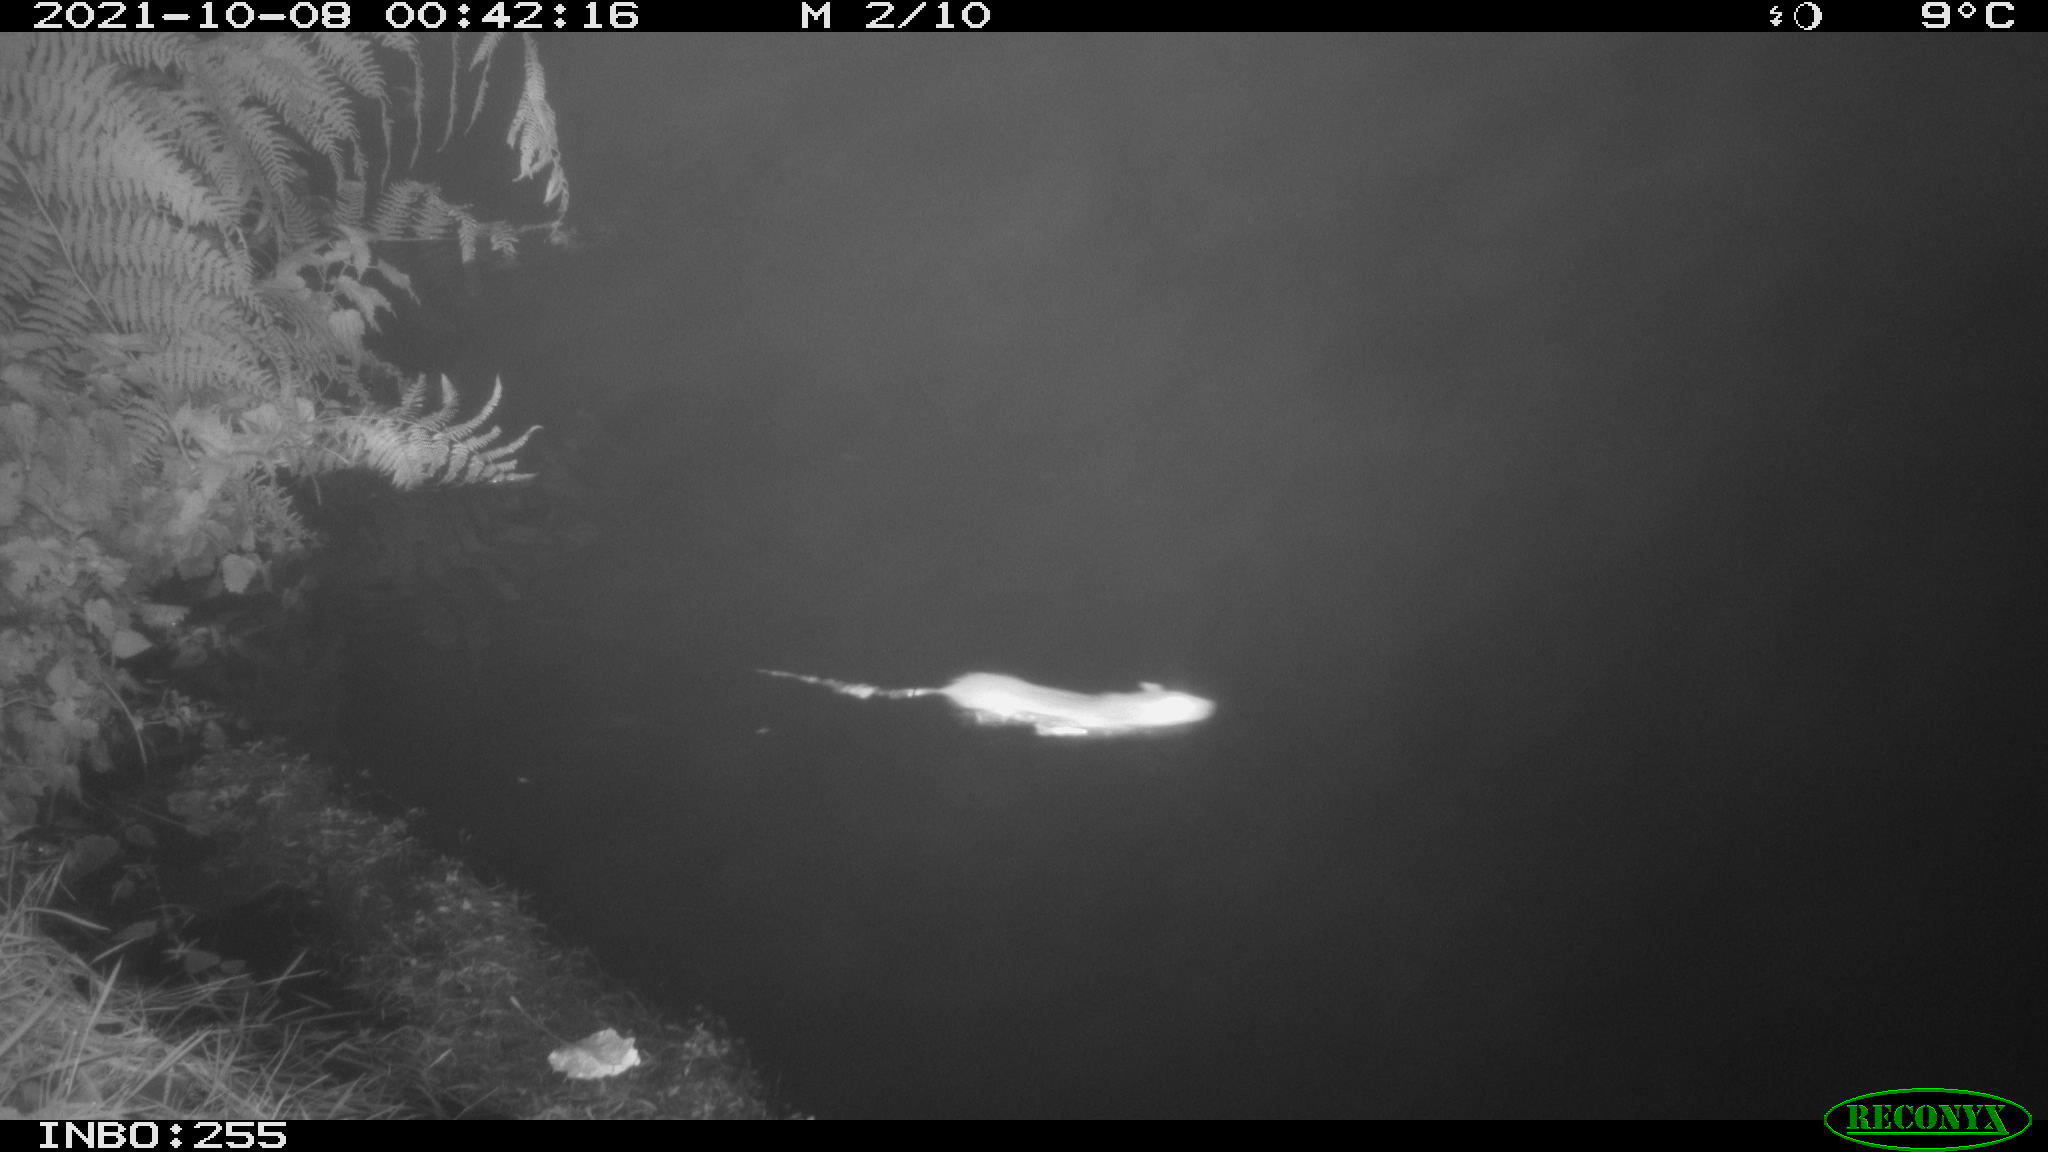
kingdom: Animalia
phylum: Chordata
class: Mammalia
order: Rodentia
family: Muridae
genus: Rattus
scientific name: Rattus norvegicus
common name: Brown rat
